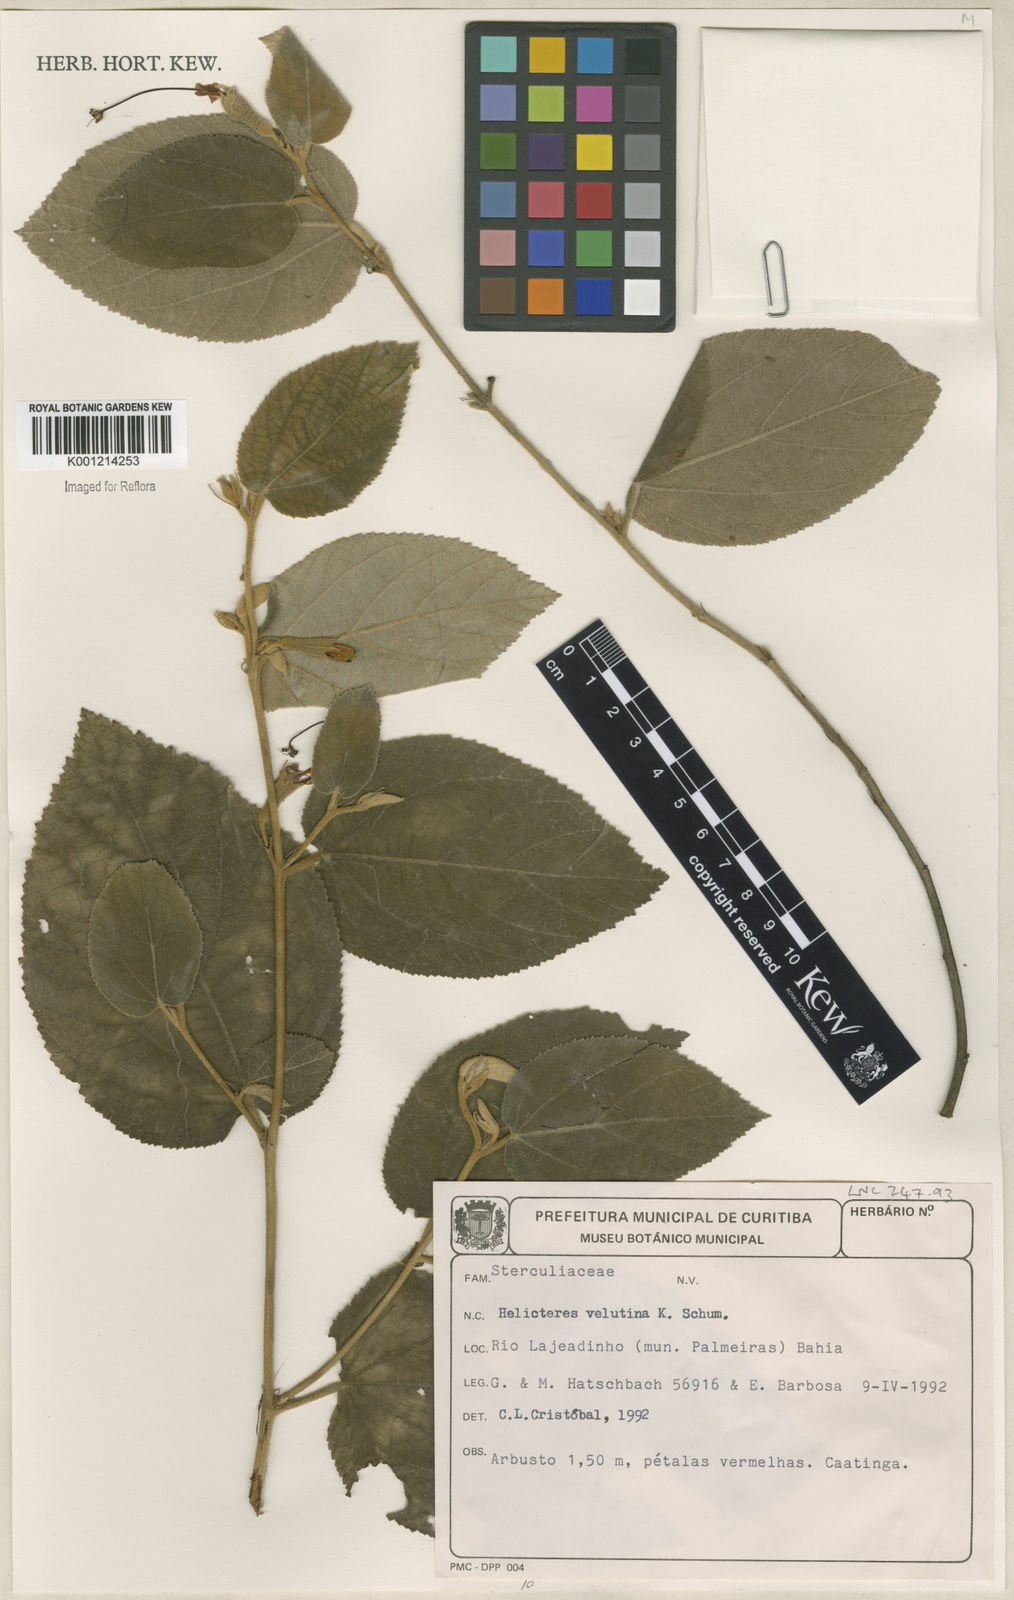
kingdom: Plantae
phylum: Tracheophyta
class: Magnoliopsida
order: Malvales
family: Malvaceae
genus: Helicteres
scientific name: Helicteres velutina
